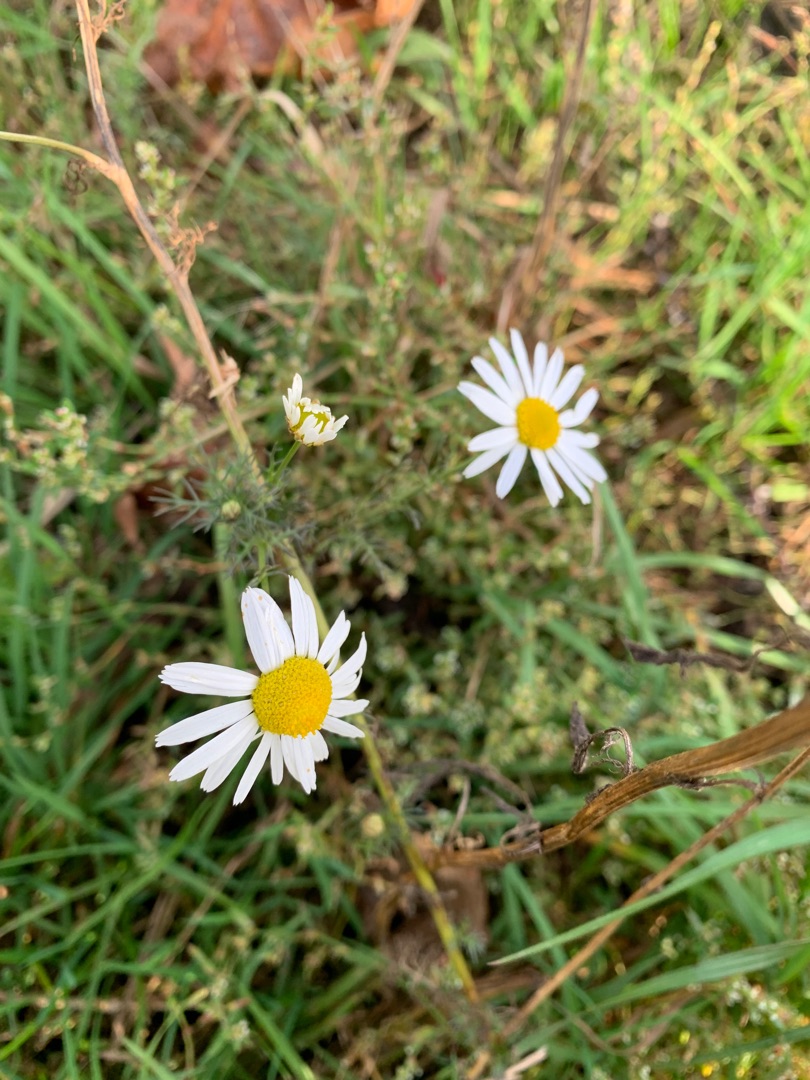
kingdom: Plantae
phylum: Tracheophyta
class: Magnoliopsida
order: Asterales
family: Asteraceae
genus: Tripleurospermum
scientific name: Tripleurospermum inodorum
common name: Lugtløs kamille
